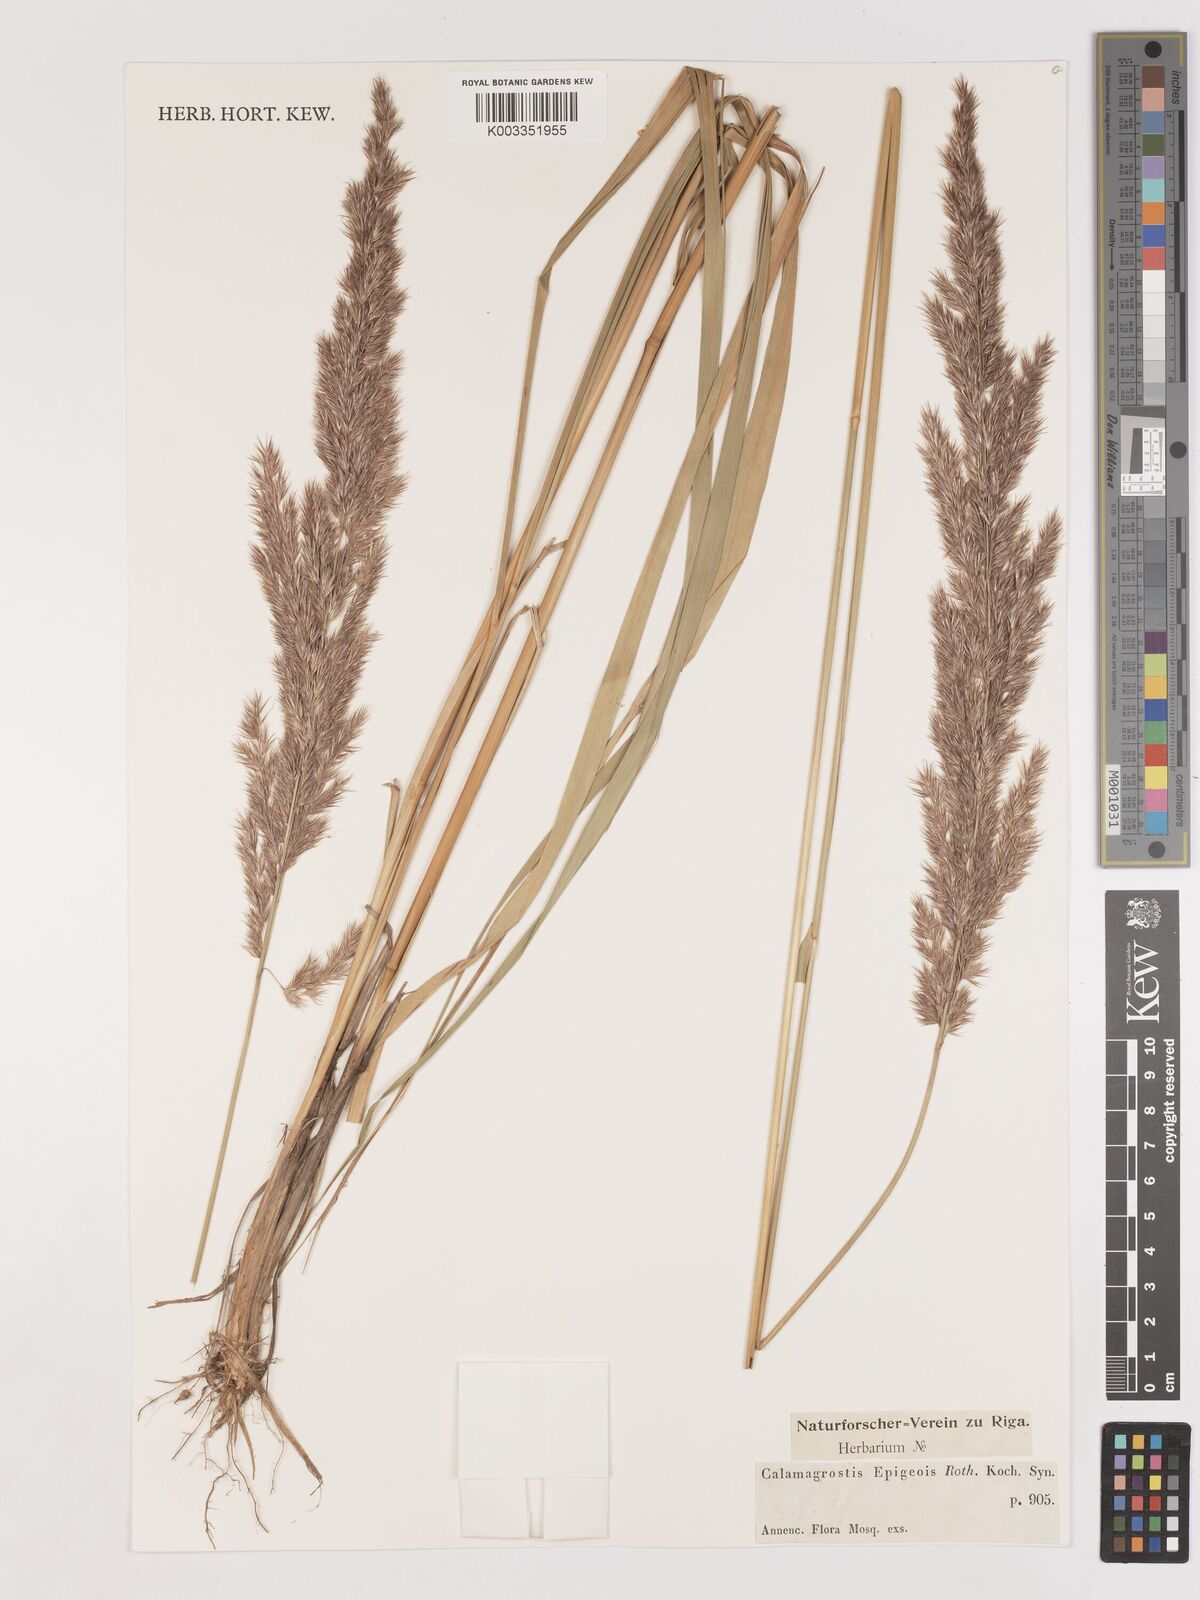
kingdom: Plantae
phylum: Tracheophyta
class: Liliopsida
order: Poales
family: Poaceae
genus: Calamagrostis
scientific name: Calamagrostis epigejos
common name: Wood small-reed
